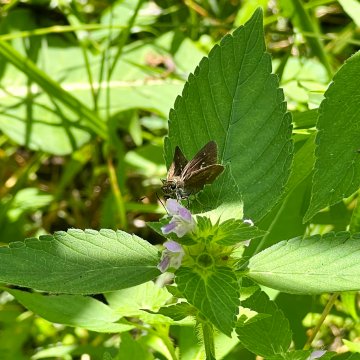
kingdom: Animalia
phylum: Arthropoda
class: Insecta
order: Lepidoptera
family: Hesperiidae
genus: Euphyes
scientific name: Euphyes vestris
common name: Dun Skipper
